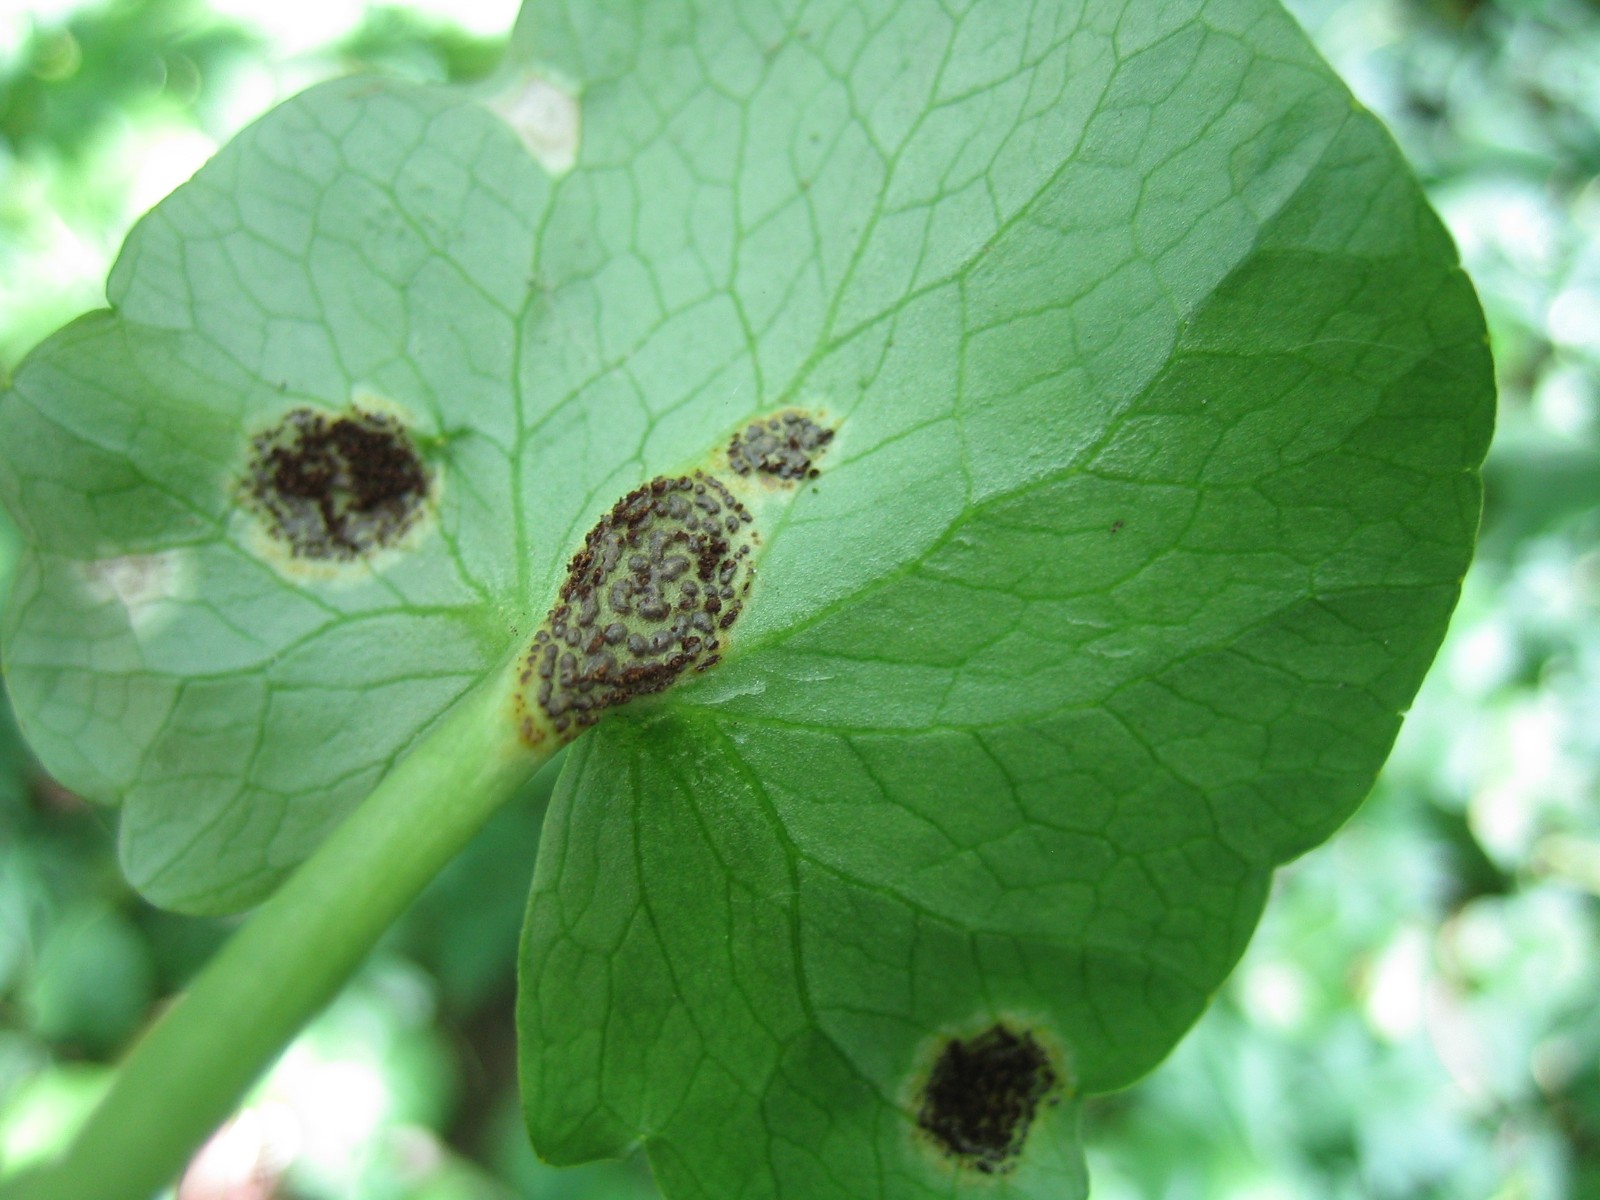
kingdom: Fungi
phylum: Basidiomycota
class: Pucciniomycetes
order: Pucciniales
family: Pucciniaceae
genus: Uromyces
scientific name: Uromyces ficariae
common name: vorterod-encellerust
